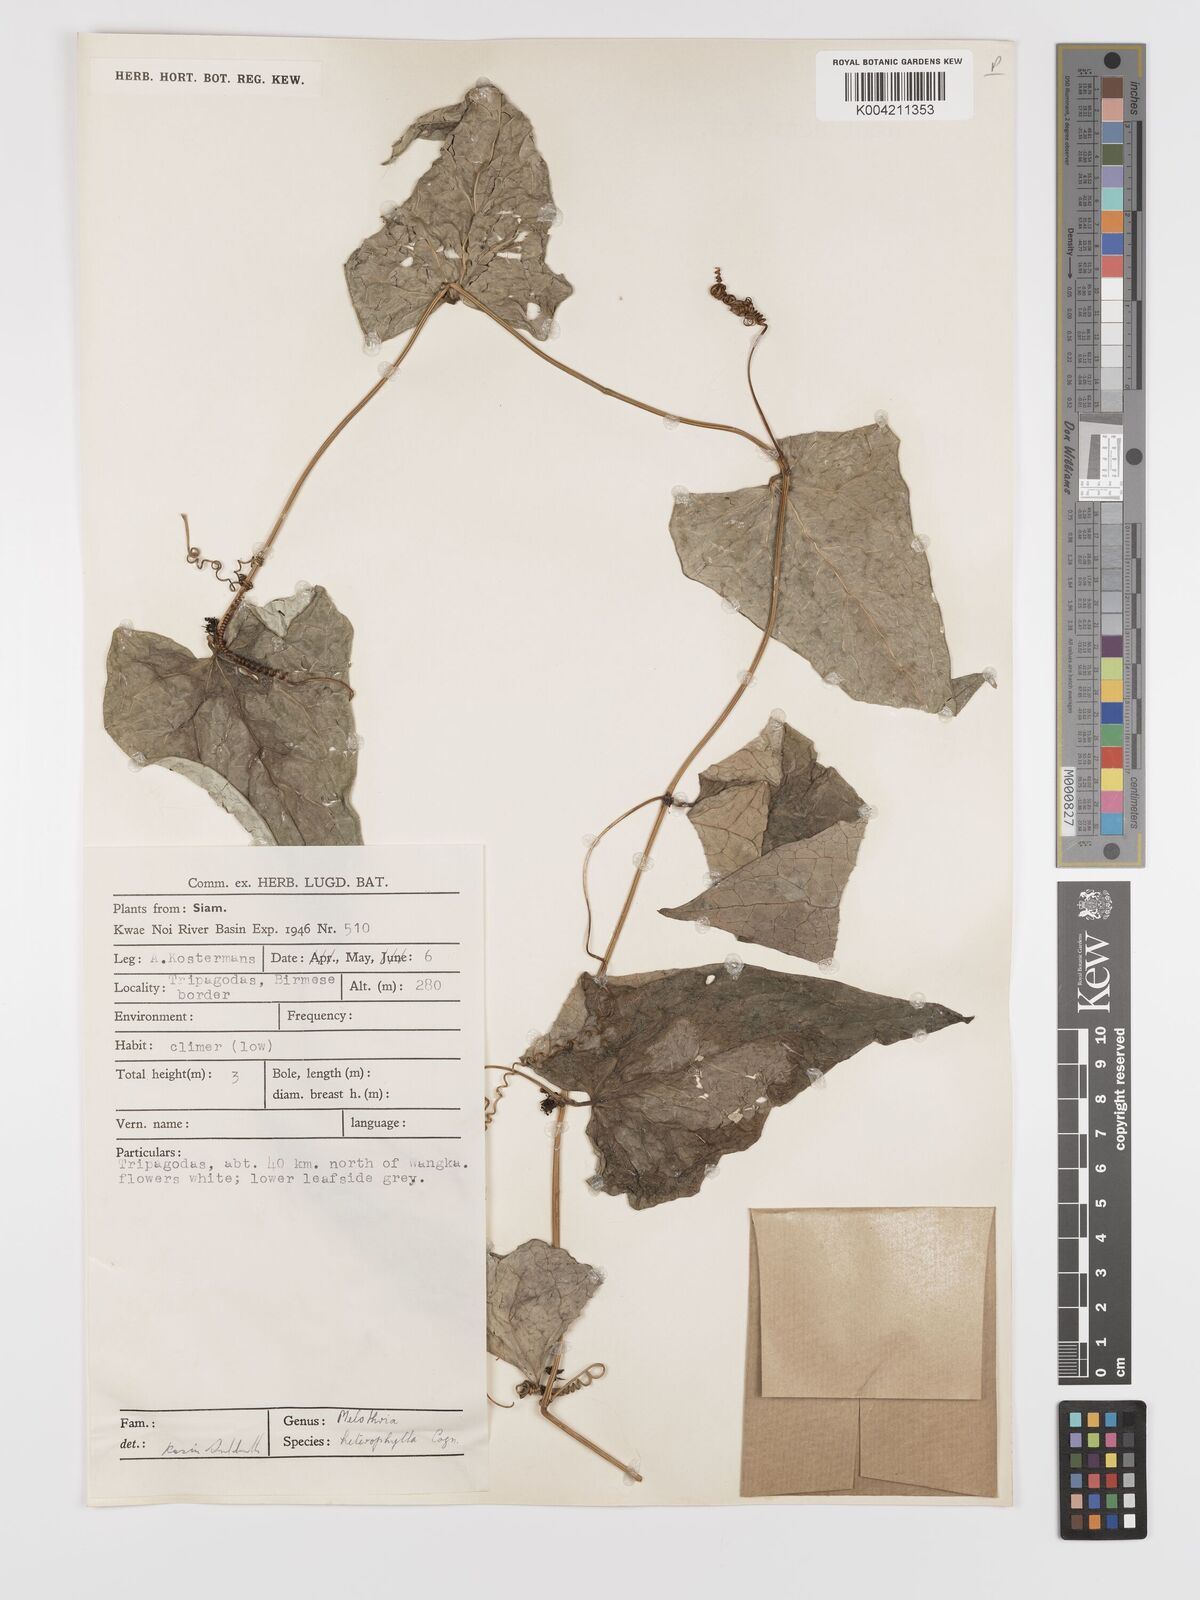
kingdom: Plantae
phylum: Tracheophyta
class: Magnoliopsida
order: Cucurbitales
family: Cucurbitaceae
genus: Solena
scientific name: Solena amplexicaulis
